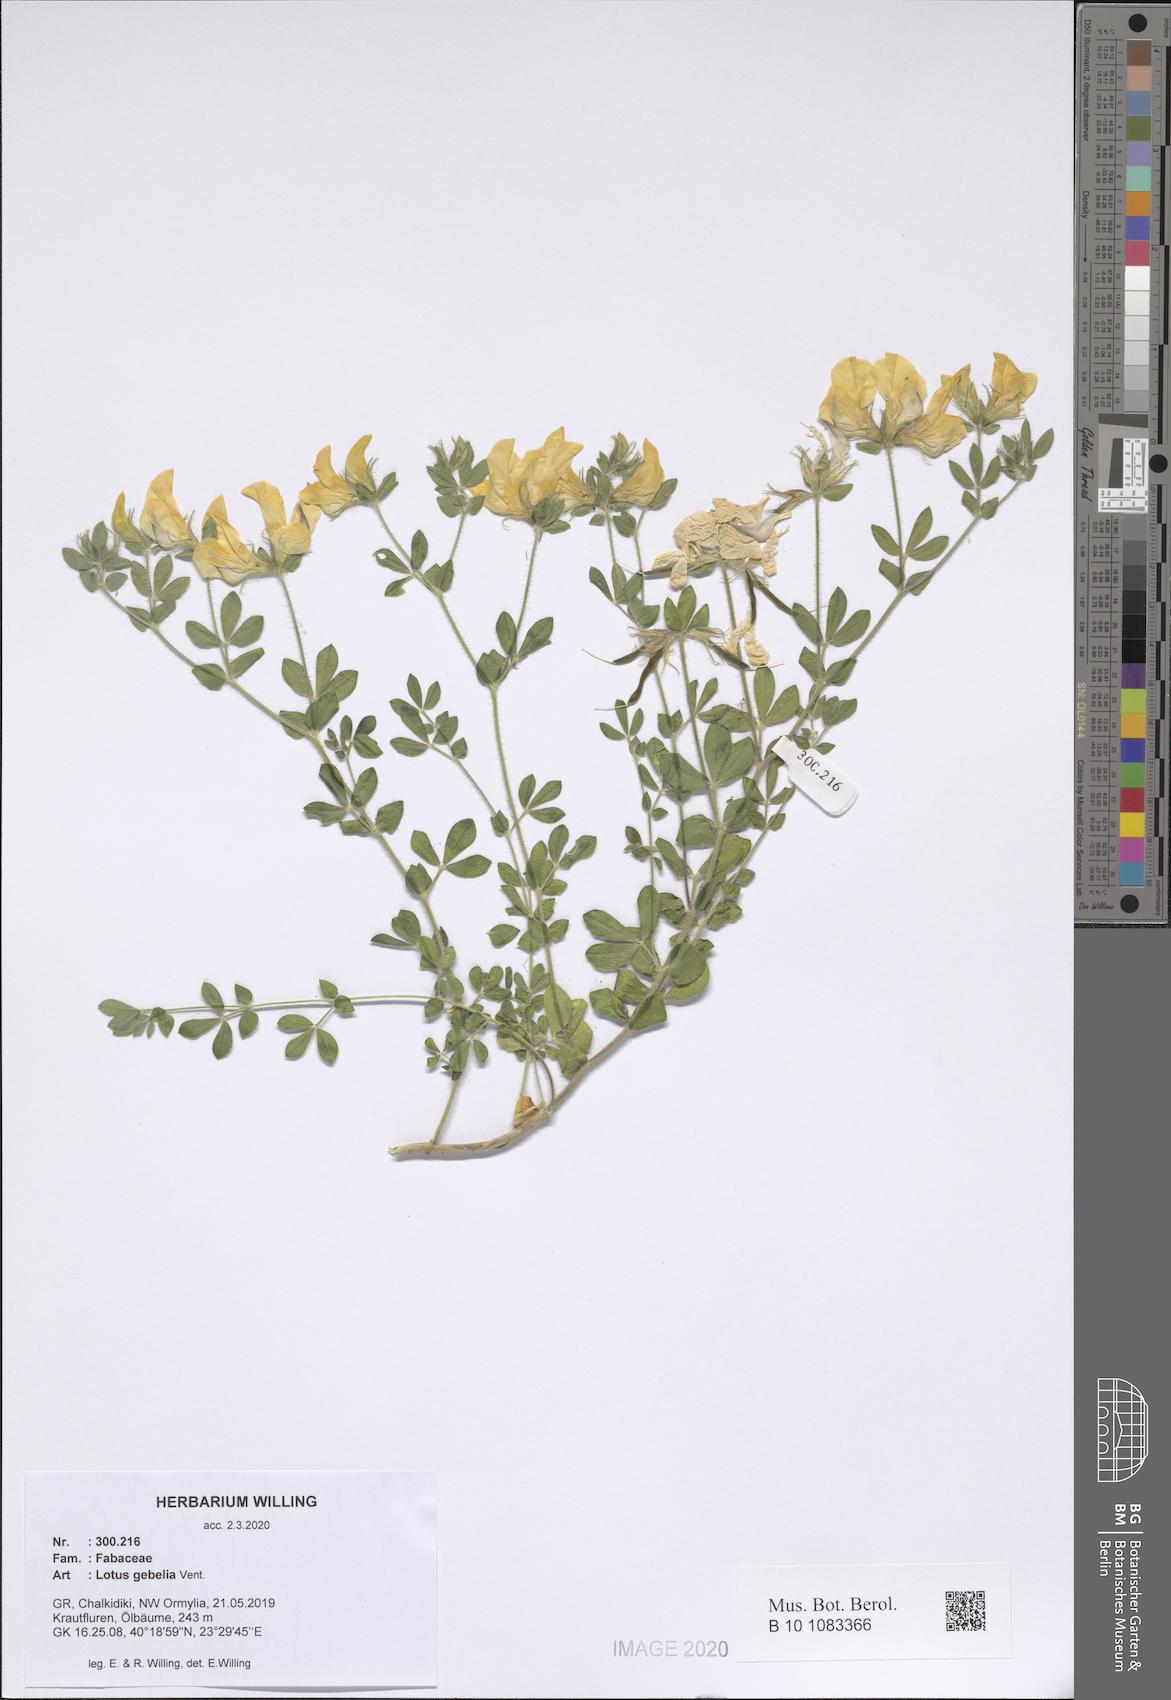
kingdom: Plantae
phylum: Tracheophyta
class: Magnoliopsida
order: Fabales
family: Fabaceae
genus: Lotus
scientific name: Lotus gebelia
